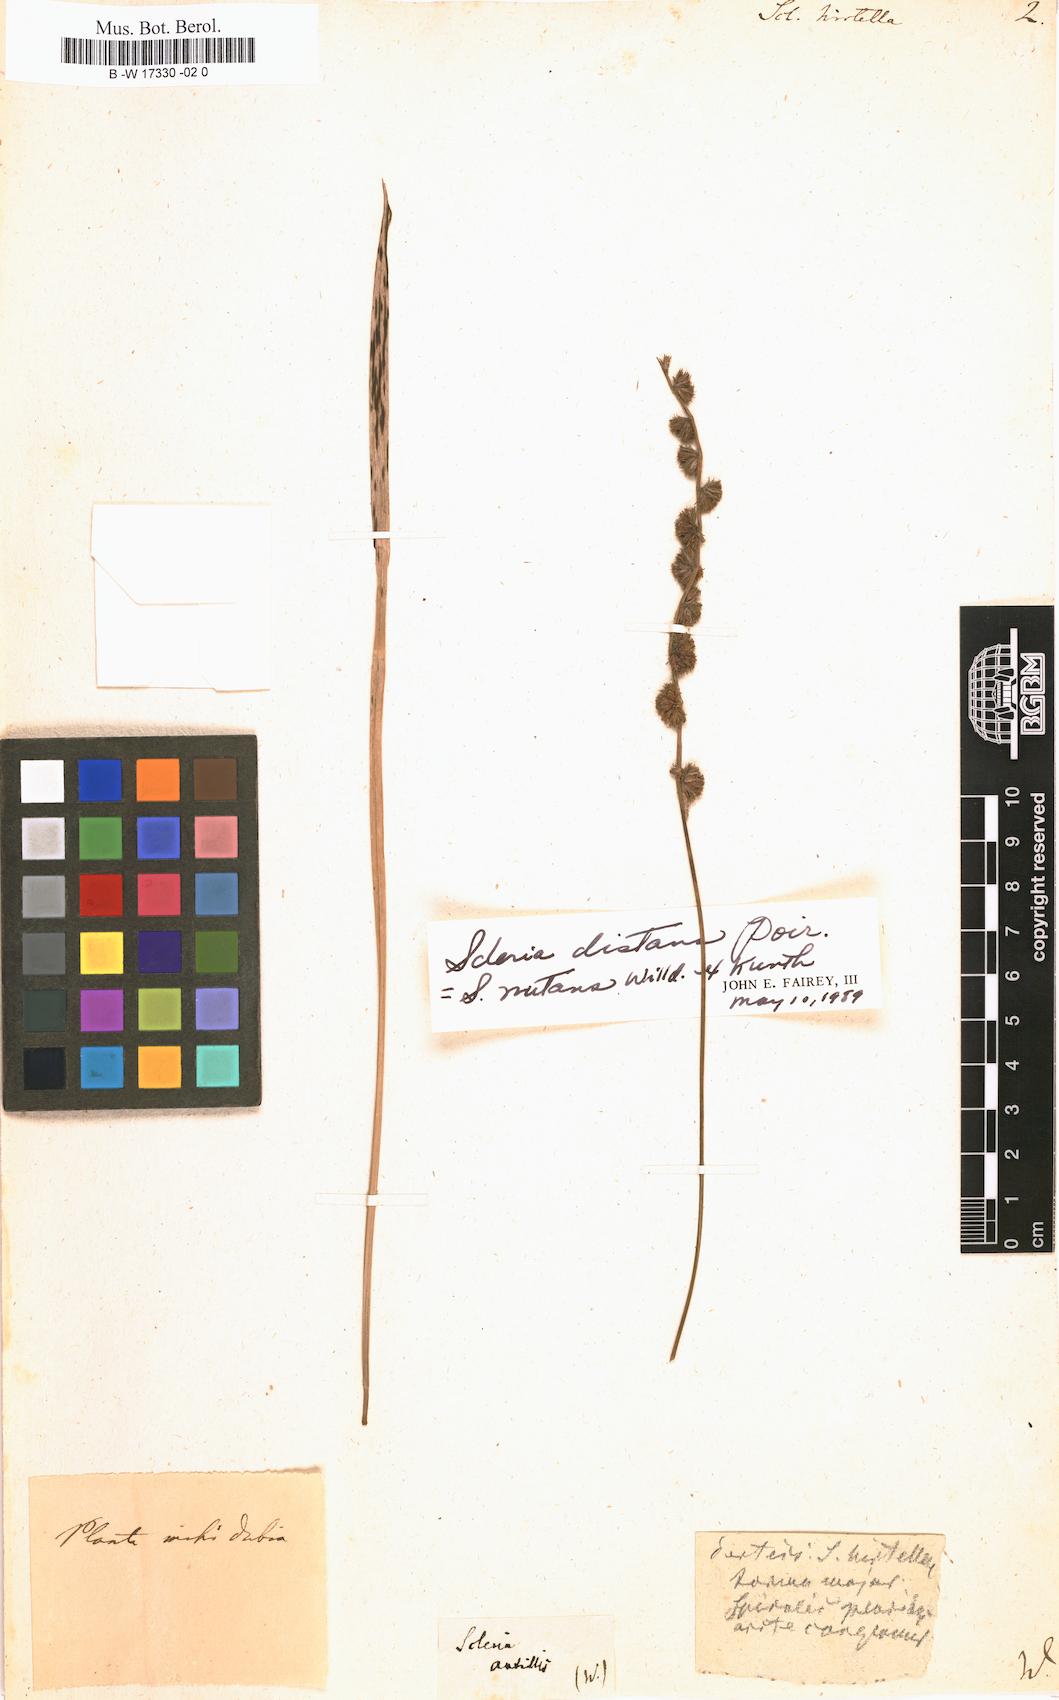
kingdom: Plantae
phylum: Tracheophyta
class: Liliopsida
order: Poales
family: Cyperaceae
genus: Scleria
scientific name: Scleria hirtella
